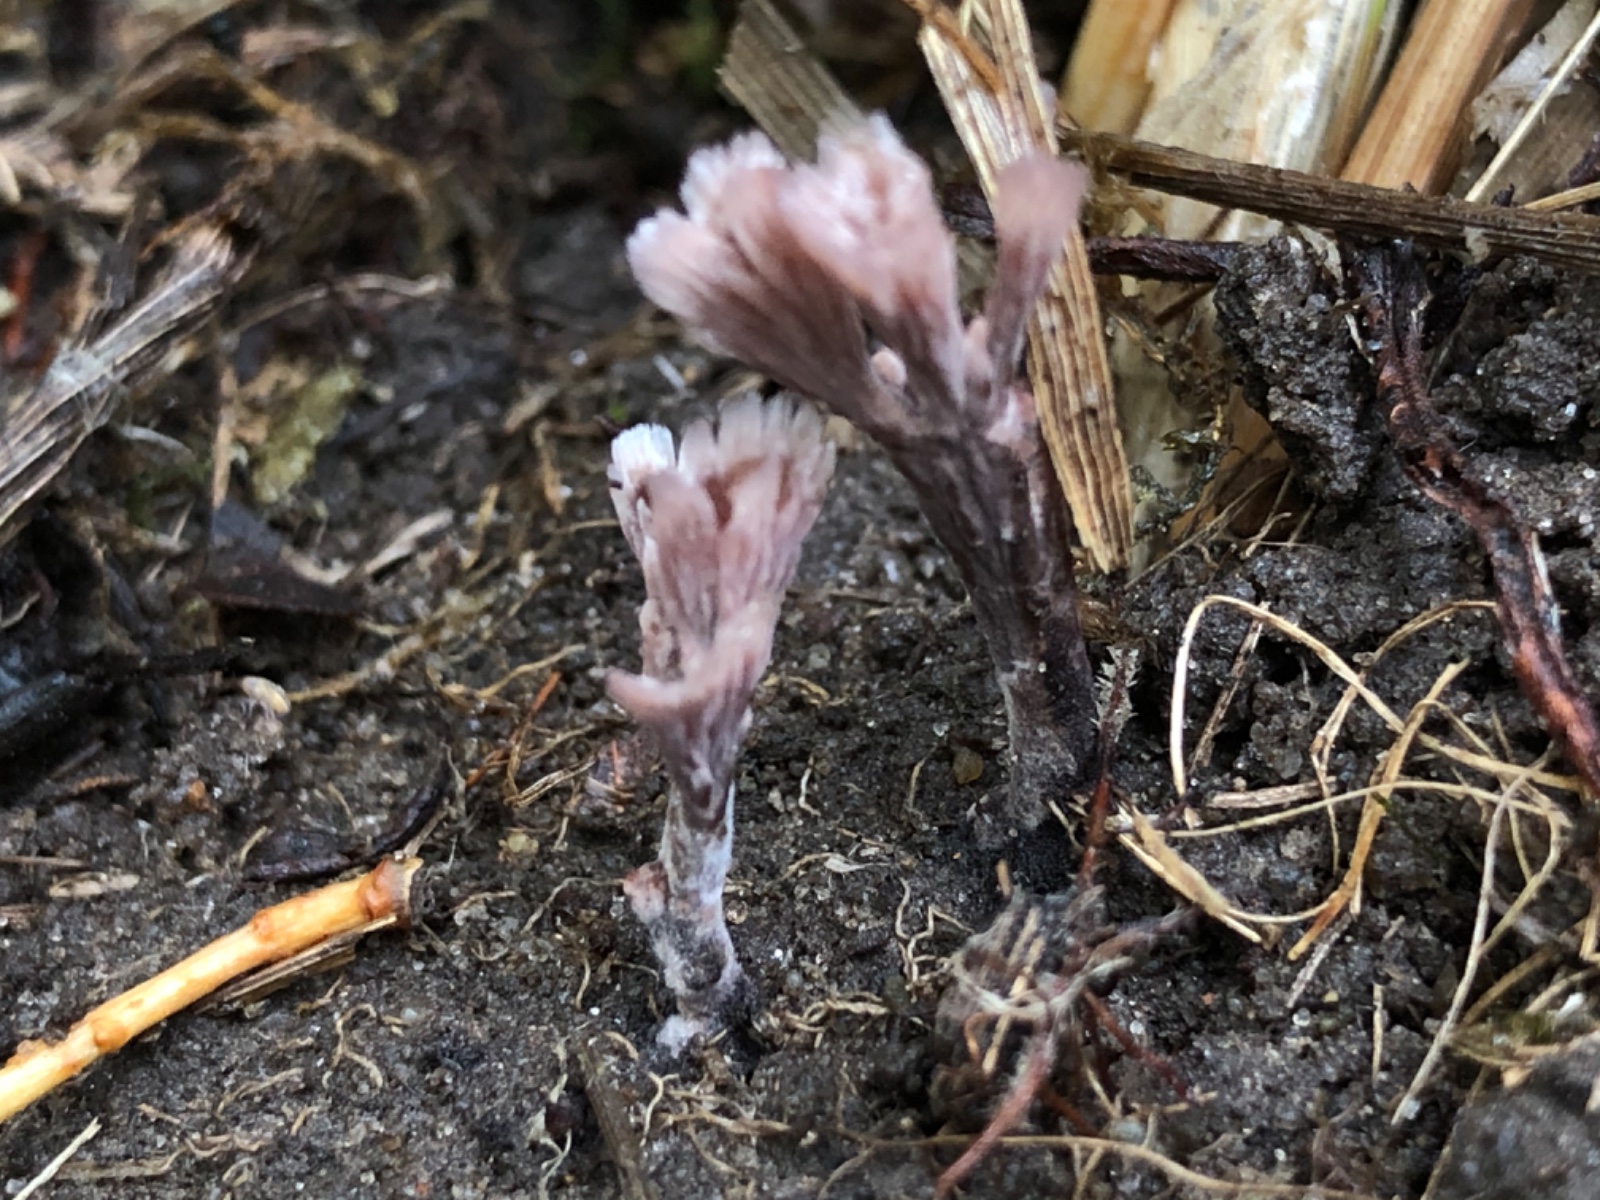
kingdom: Fungi
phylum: Basidiomycota
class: Agaricomycetes
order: Thelephorales
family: Thelephoraceae
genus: Thelephora
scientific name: Thelephora palmata
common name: grenet frynsesvamp
